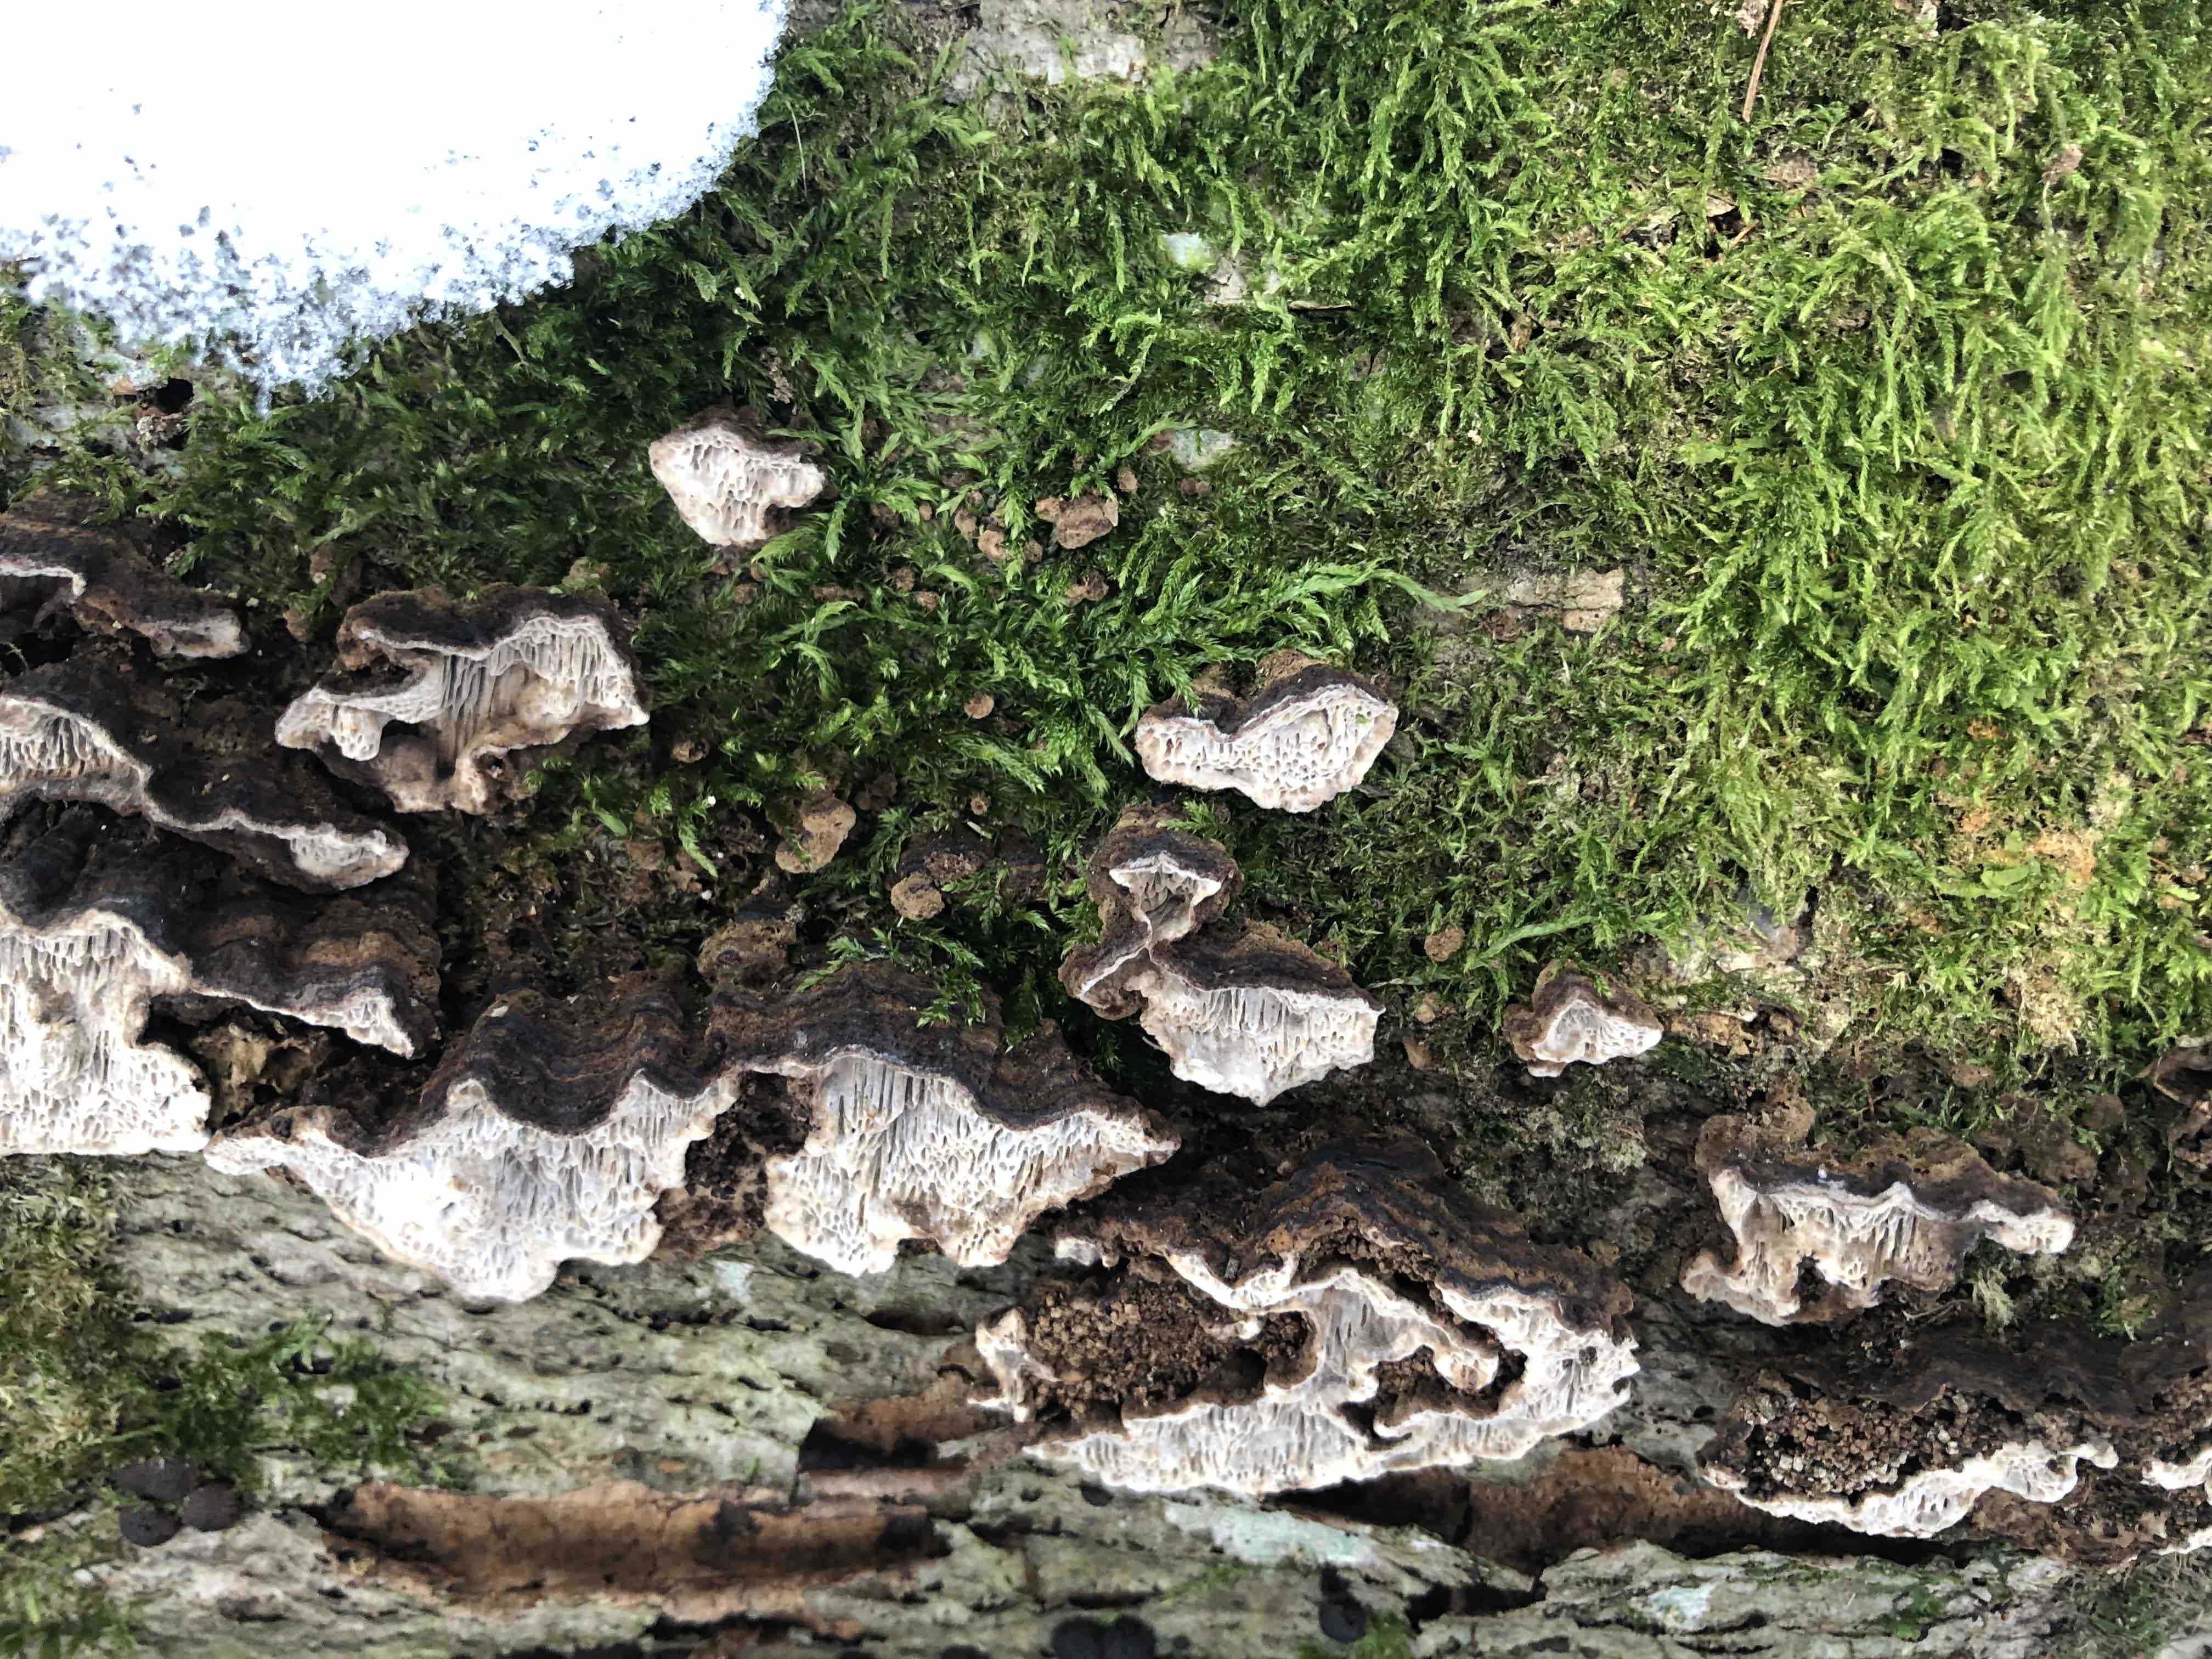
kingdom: Fungi
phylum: Basidiomycota
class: Agaricomycetes
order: Polyporales
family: Polyporaceae
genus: Podofomes
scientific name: Podofomes mollis
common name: blød begporesvamp
